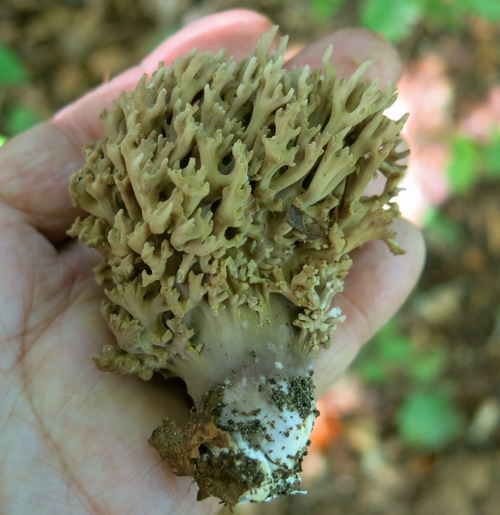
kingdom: Fungi
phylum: Basidiomycota
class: Agaricomycetes
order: Gomphales
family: Gomphaceae
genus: Ramaria
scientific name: Ramaria fumigata
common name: violet koralsvamp
